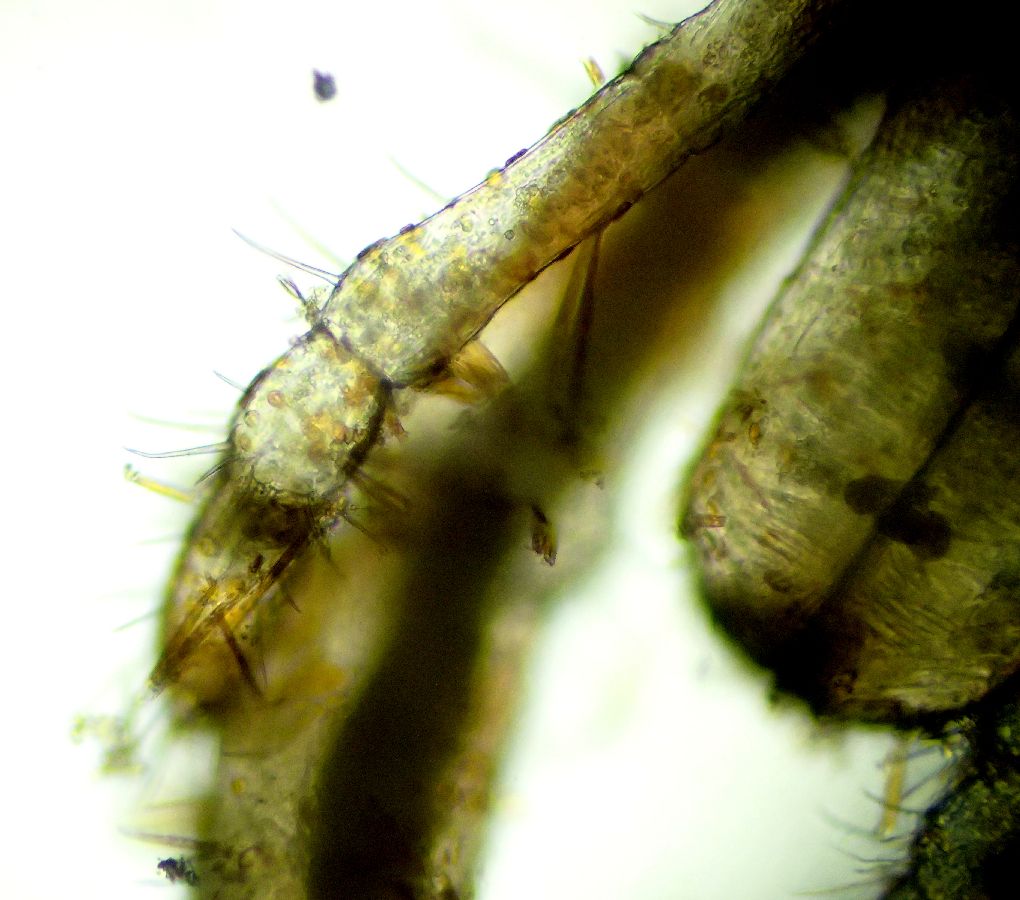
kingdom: Animalia
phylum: Arthropoda
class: Pycnogonida
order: Pantopoda
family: Nymphonidae
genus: Nymphon
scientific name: Nymphon microrhynchum
